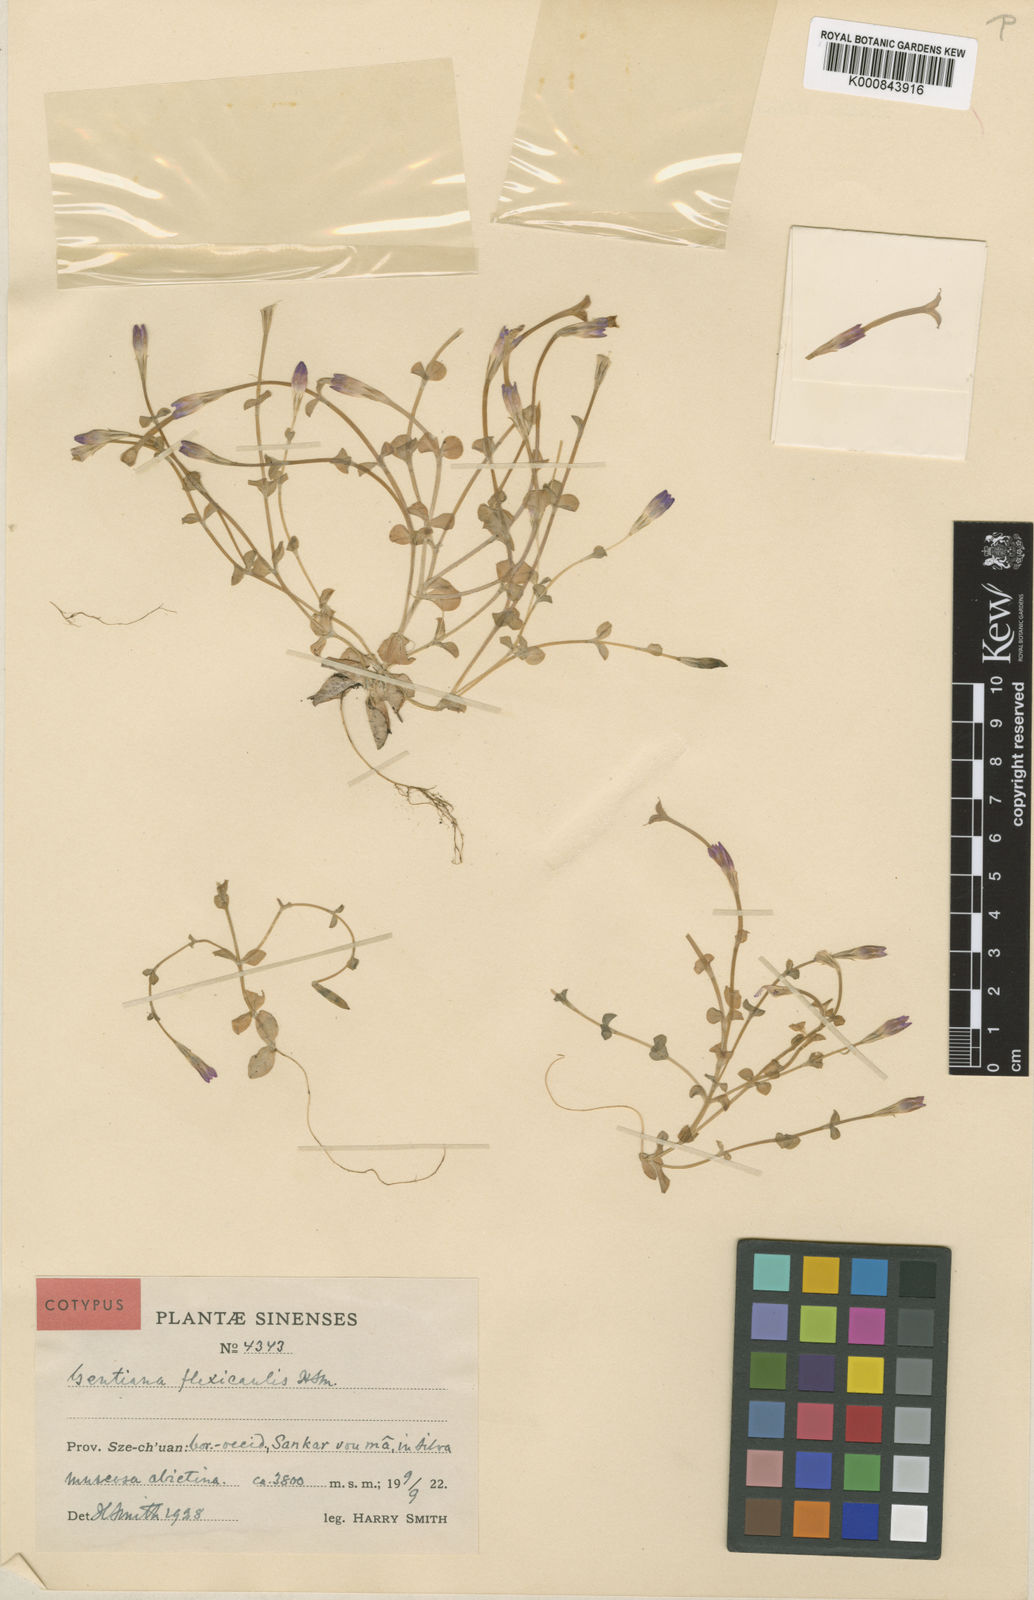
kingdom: Plantae
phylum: Tracheophyta
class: Magnoliopsida
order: Gentianales
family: Gentianaceae
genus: Gentiana
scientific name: Gentiana flexicaulis
